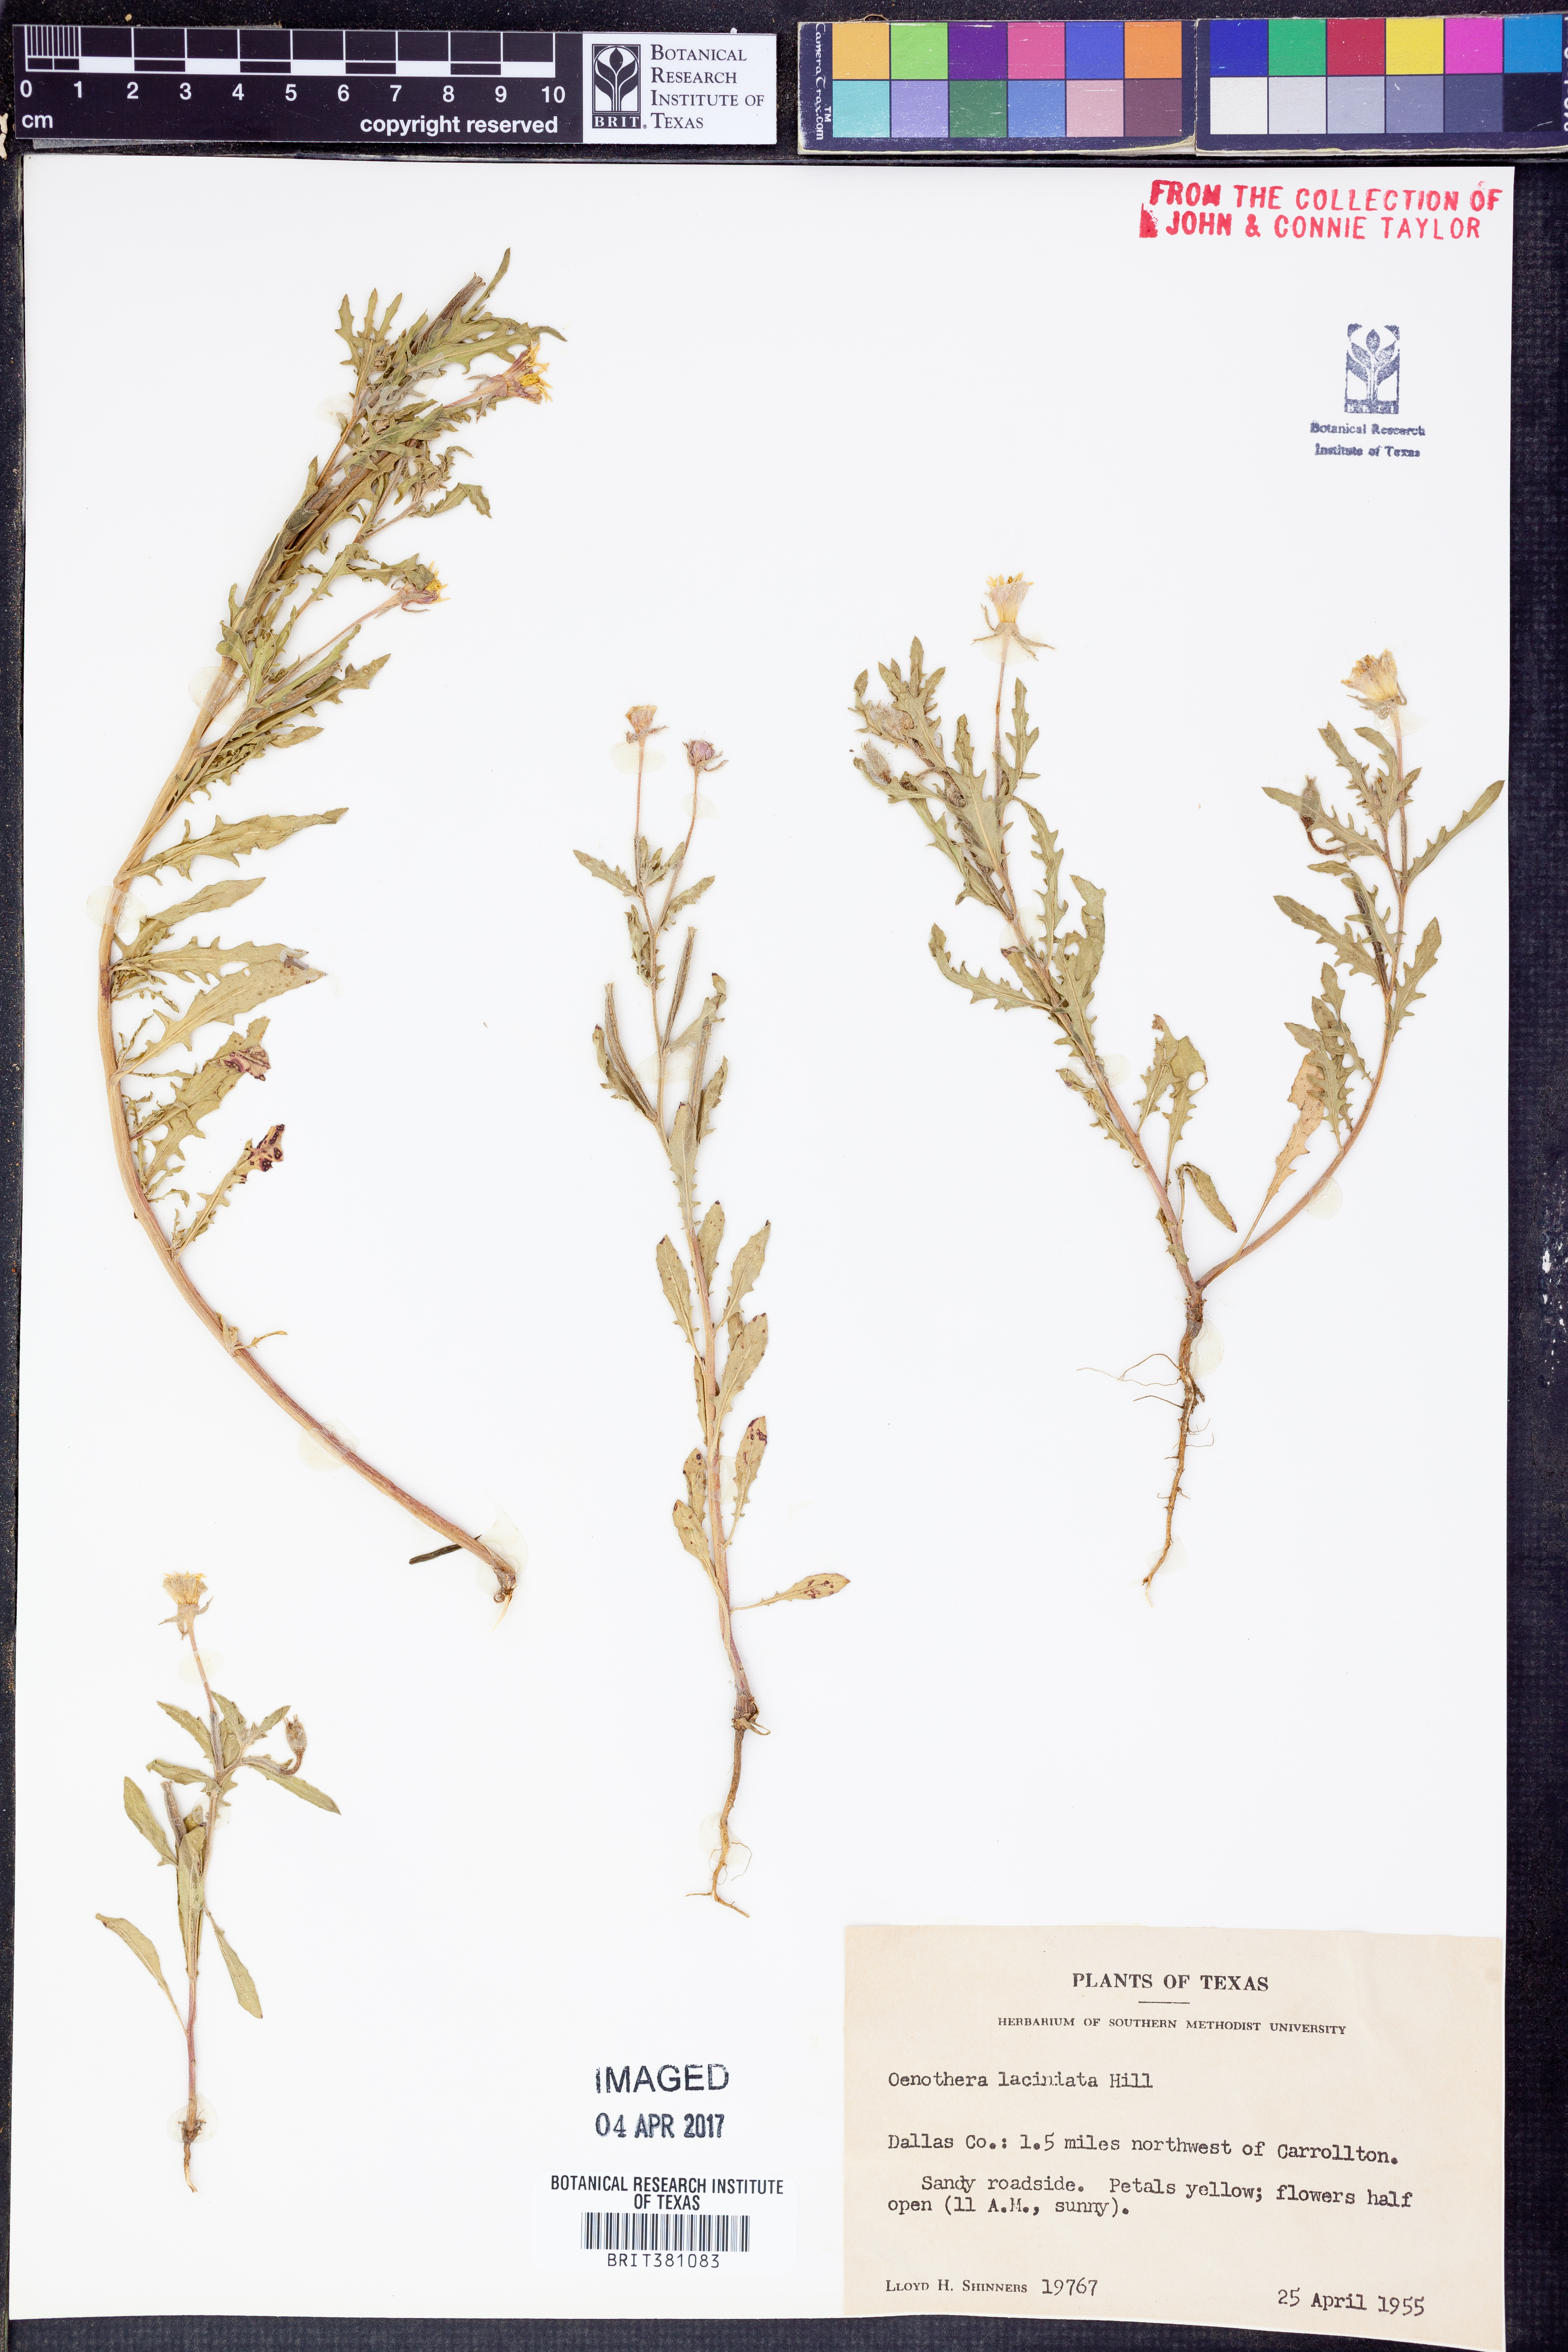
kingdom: Plantae
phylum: Tracheophyta
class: Magnoliopsida
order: Myrtales
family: Onagraceae
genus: Oenothera
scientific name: Oenothera laciniata
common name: Cut-leaved evening-primrose
